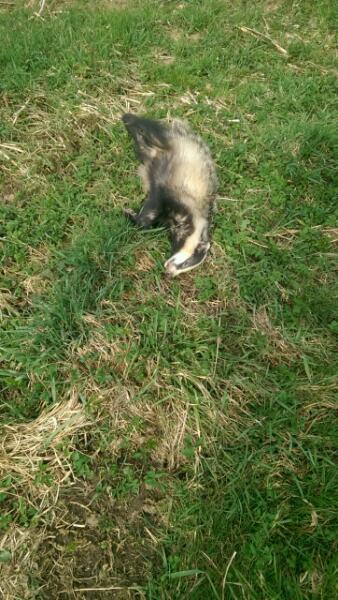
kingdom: Animalia
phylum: Chordata
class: Mammalia
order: Carnivora
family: Mustelidae
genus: Meles
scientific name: Meles meles
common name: Eurasian badger
